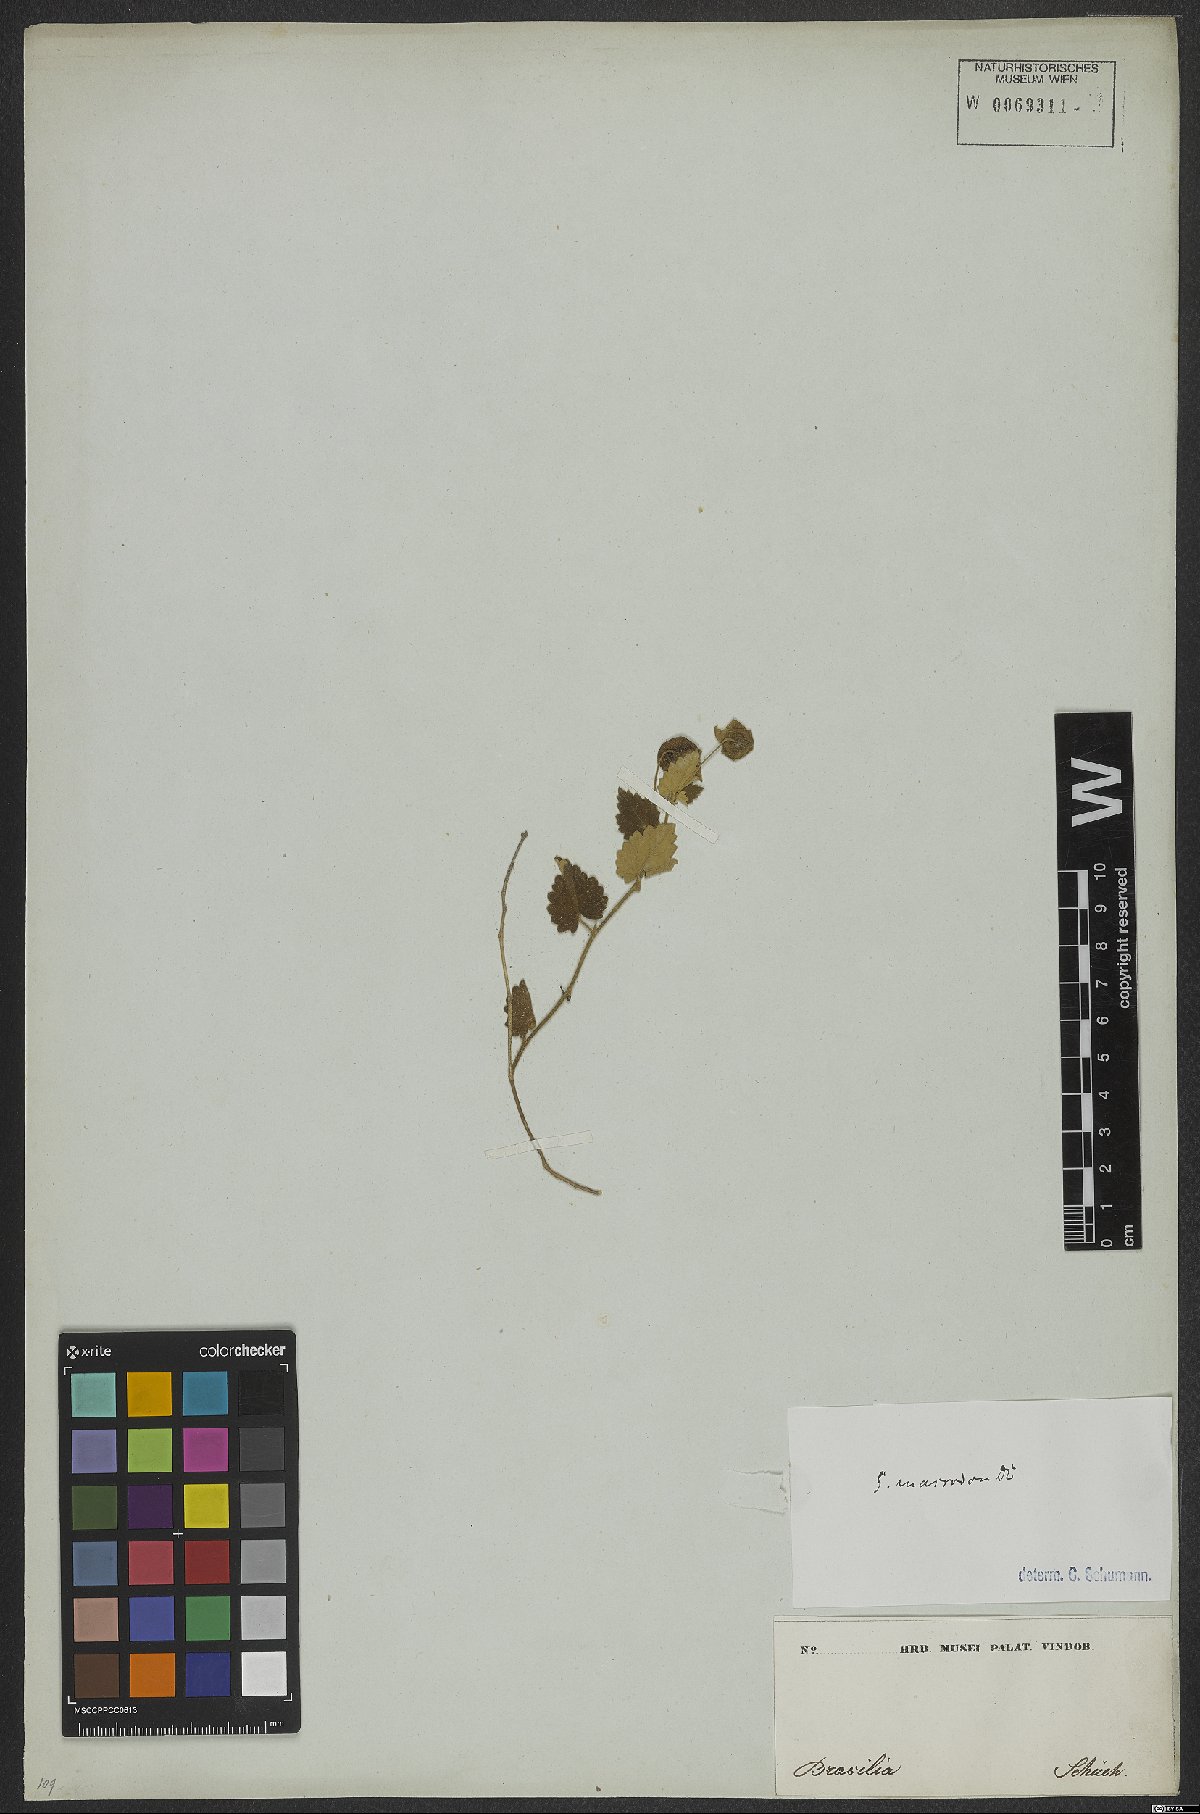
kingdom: Plantae
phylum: Tracheophyta
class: Magnoliopsida
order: Malvales
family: Malvaceae
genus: Krapovickasia
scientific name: Krapovickasia macrodon
